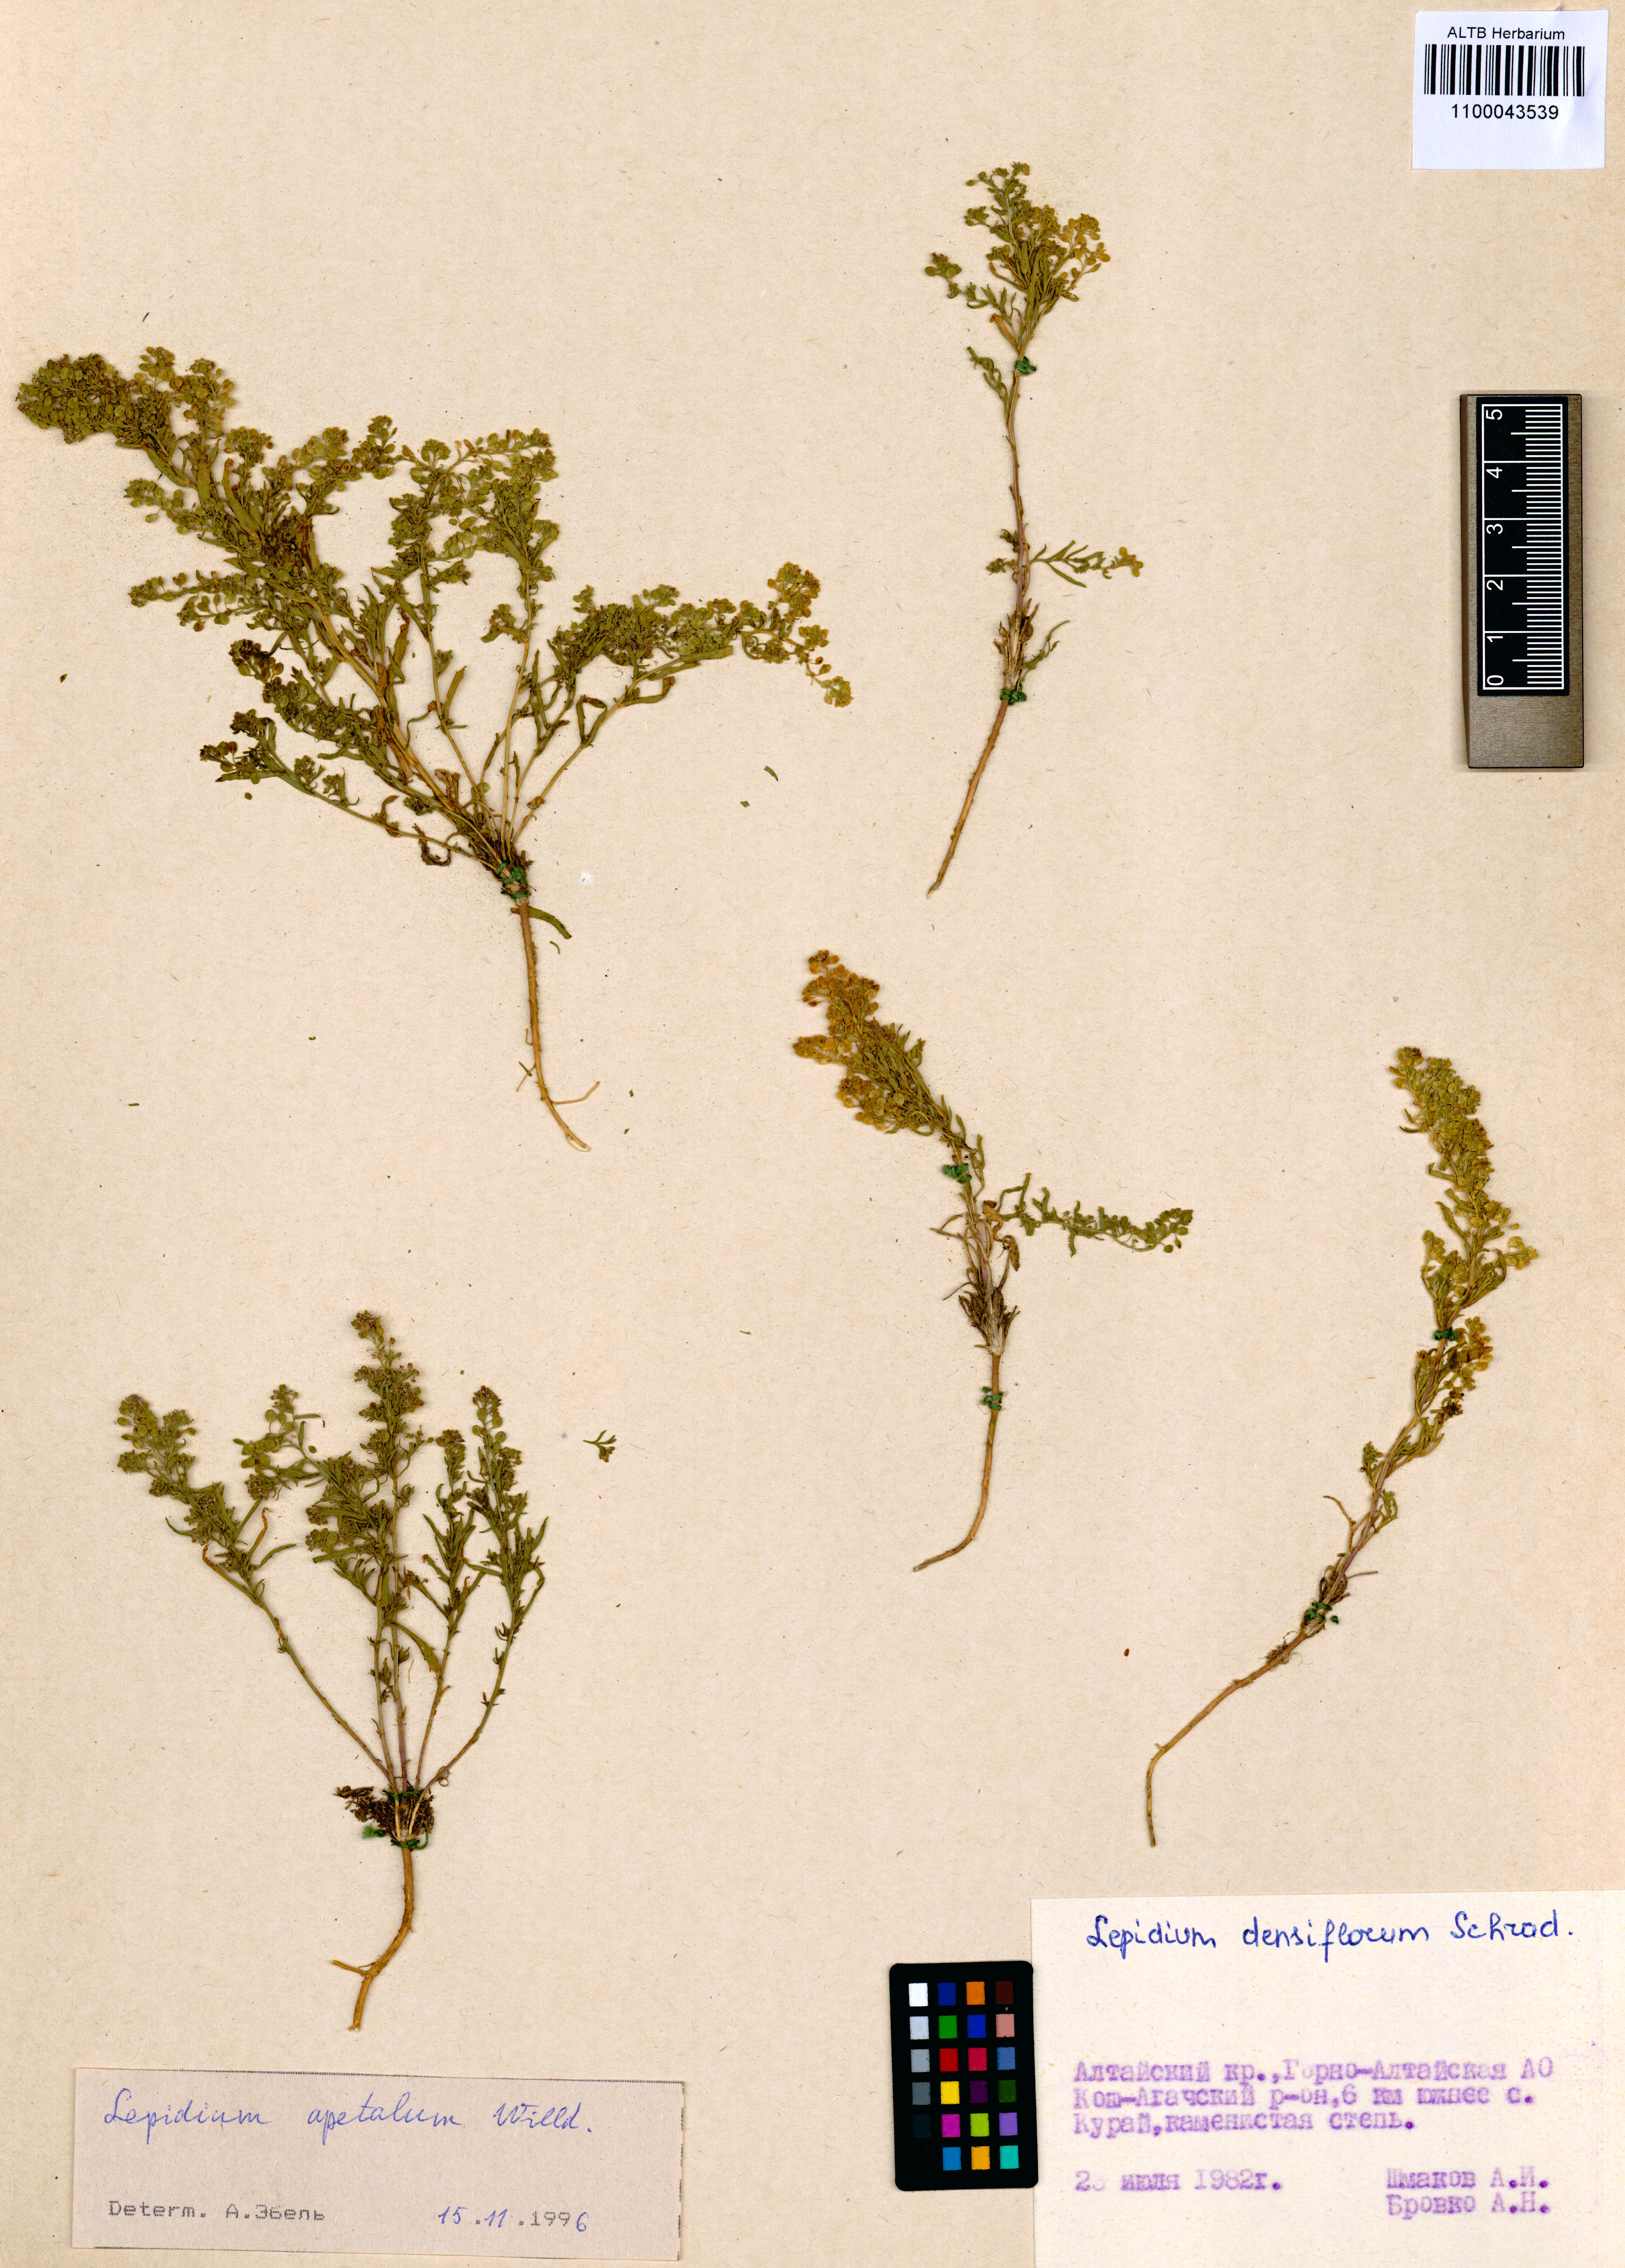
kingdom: Plantae
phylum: Tracheophyta
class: Magnoliopsida
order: Brassicales
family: Brassicaceae
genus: Lepidium
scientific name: Lepidium apetalum
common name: Pepperweed
